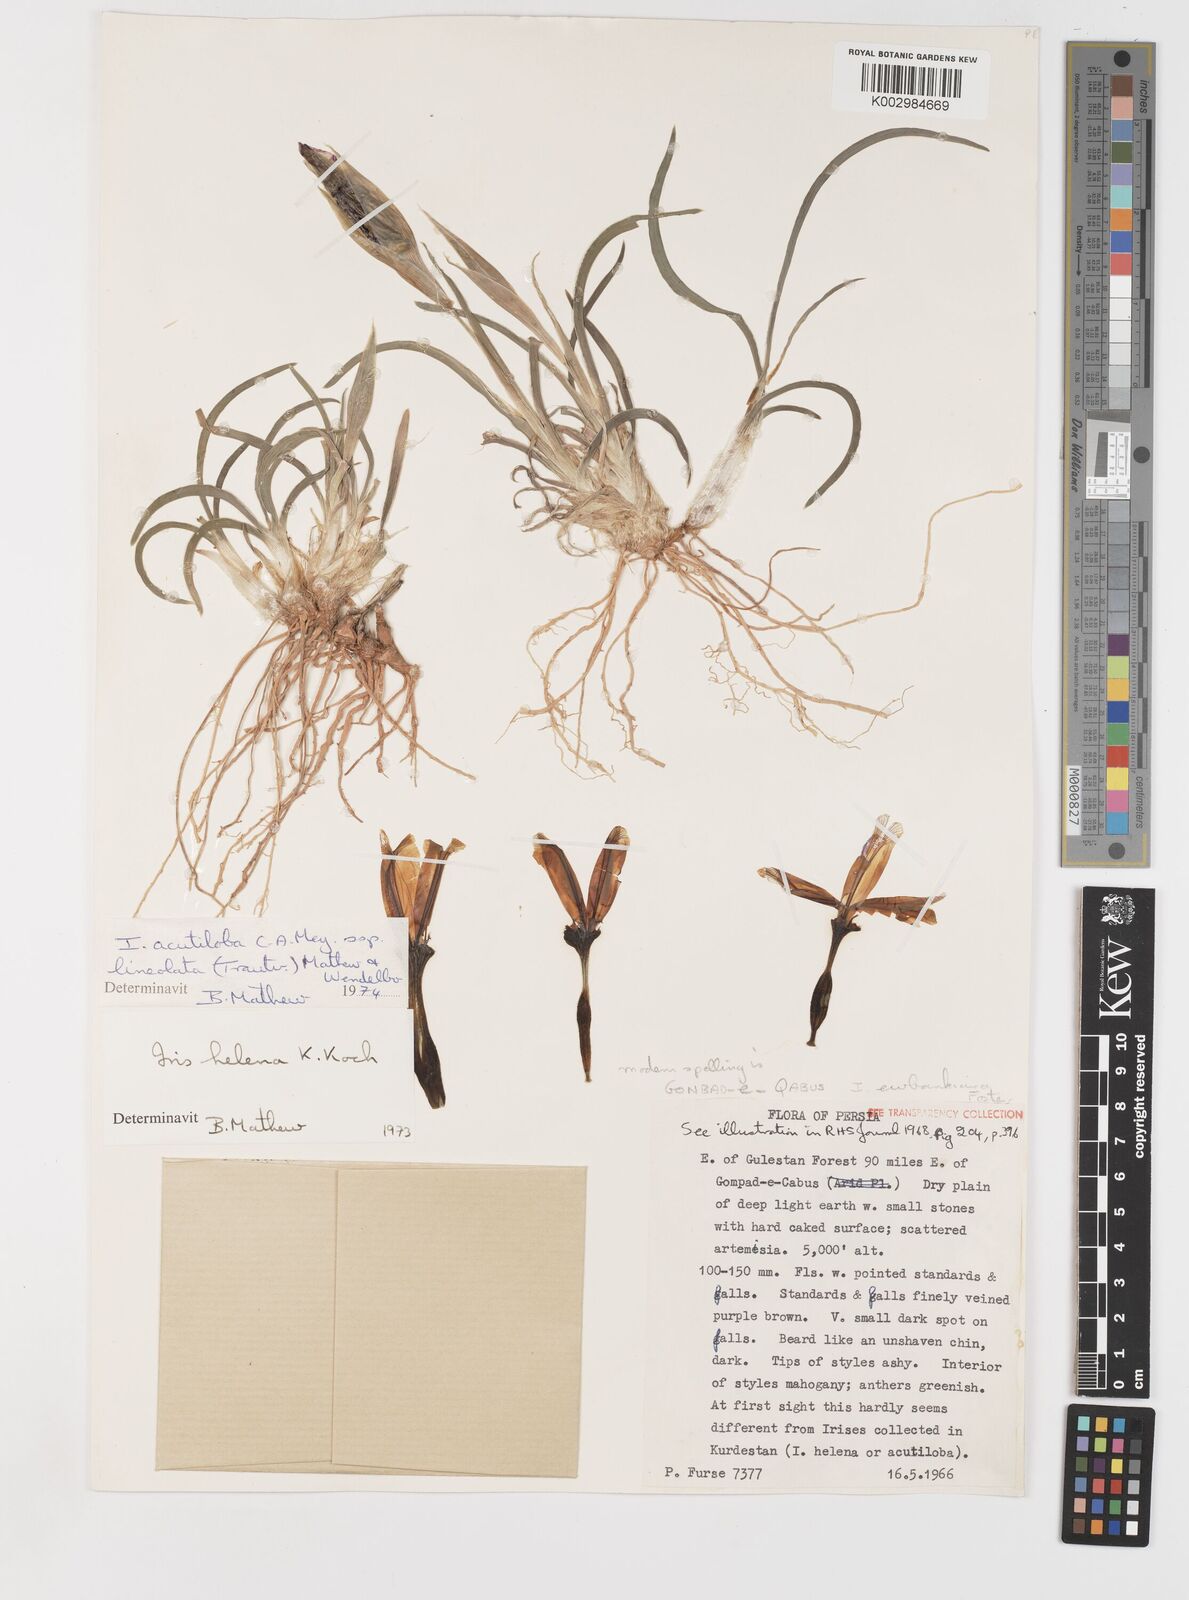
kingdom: Plantae
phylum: Tracheophyta
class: Liliopsida
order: Asparagales
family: Iridaceae
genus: Iris
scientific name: Iris acutiloba
